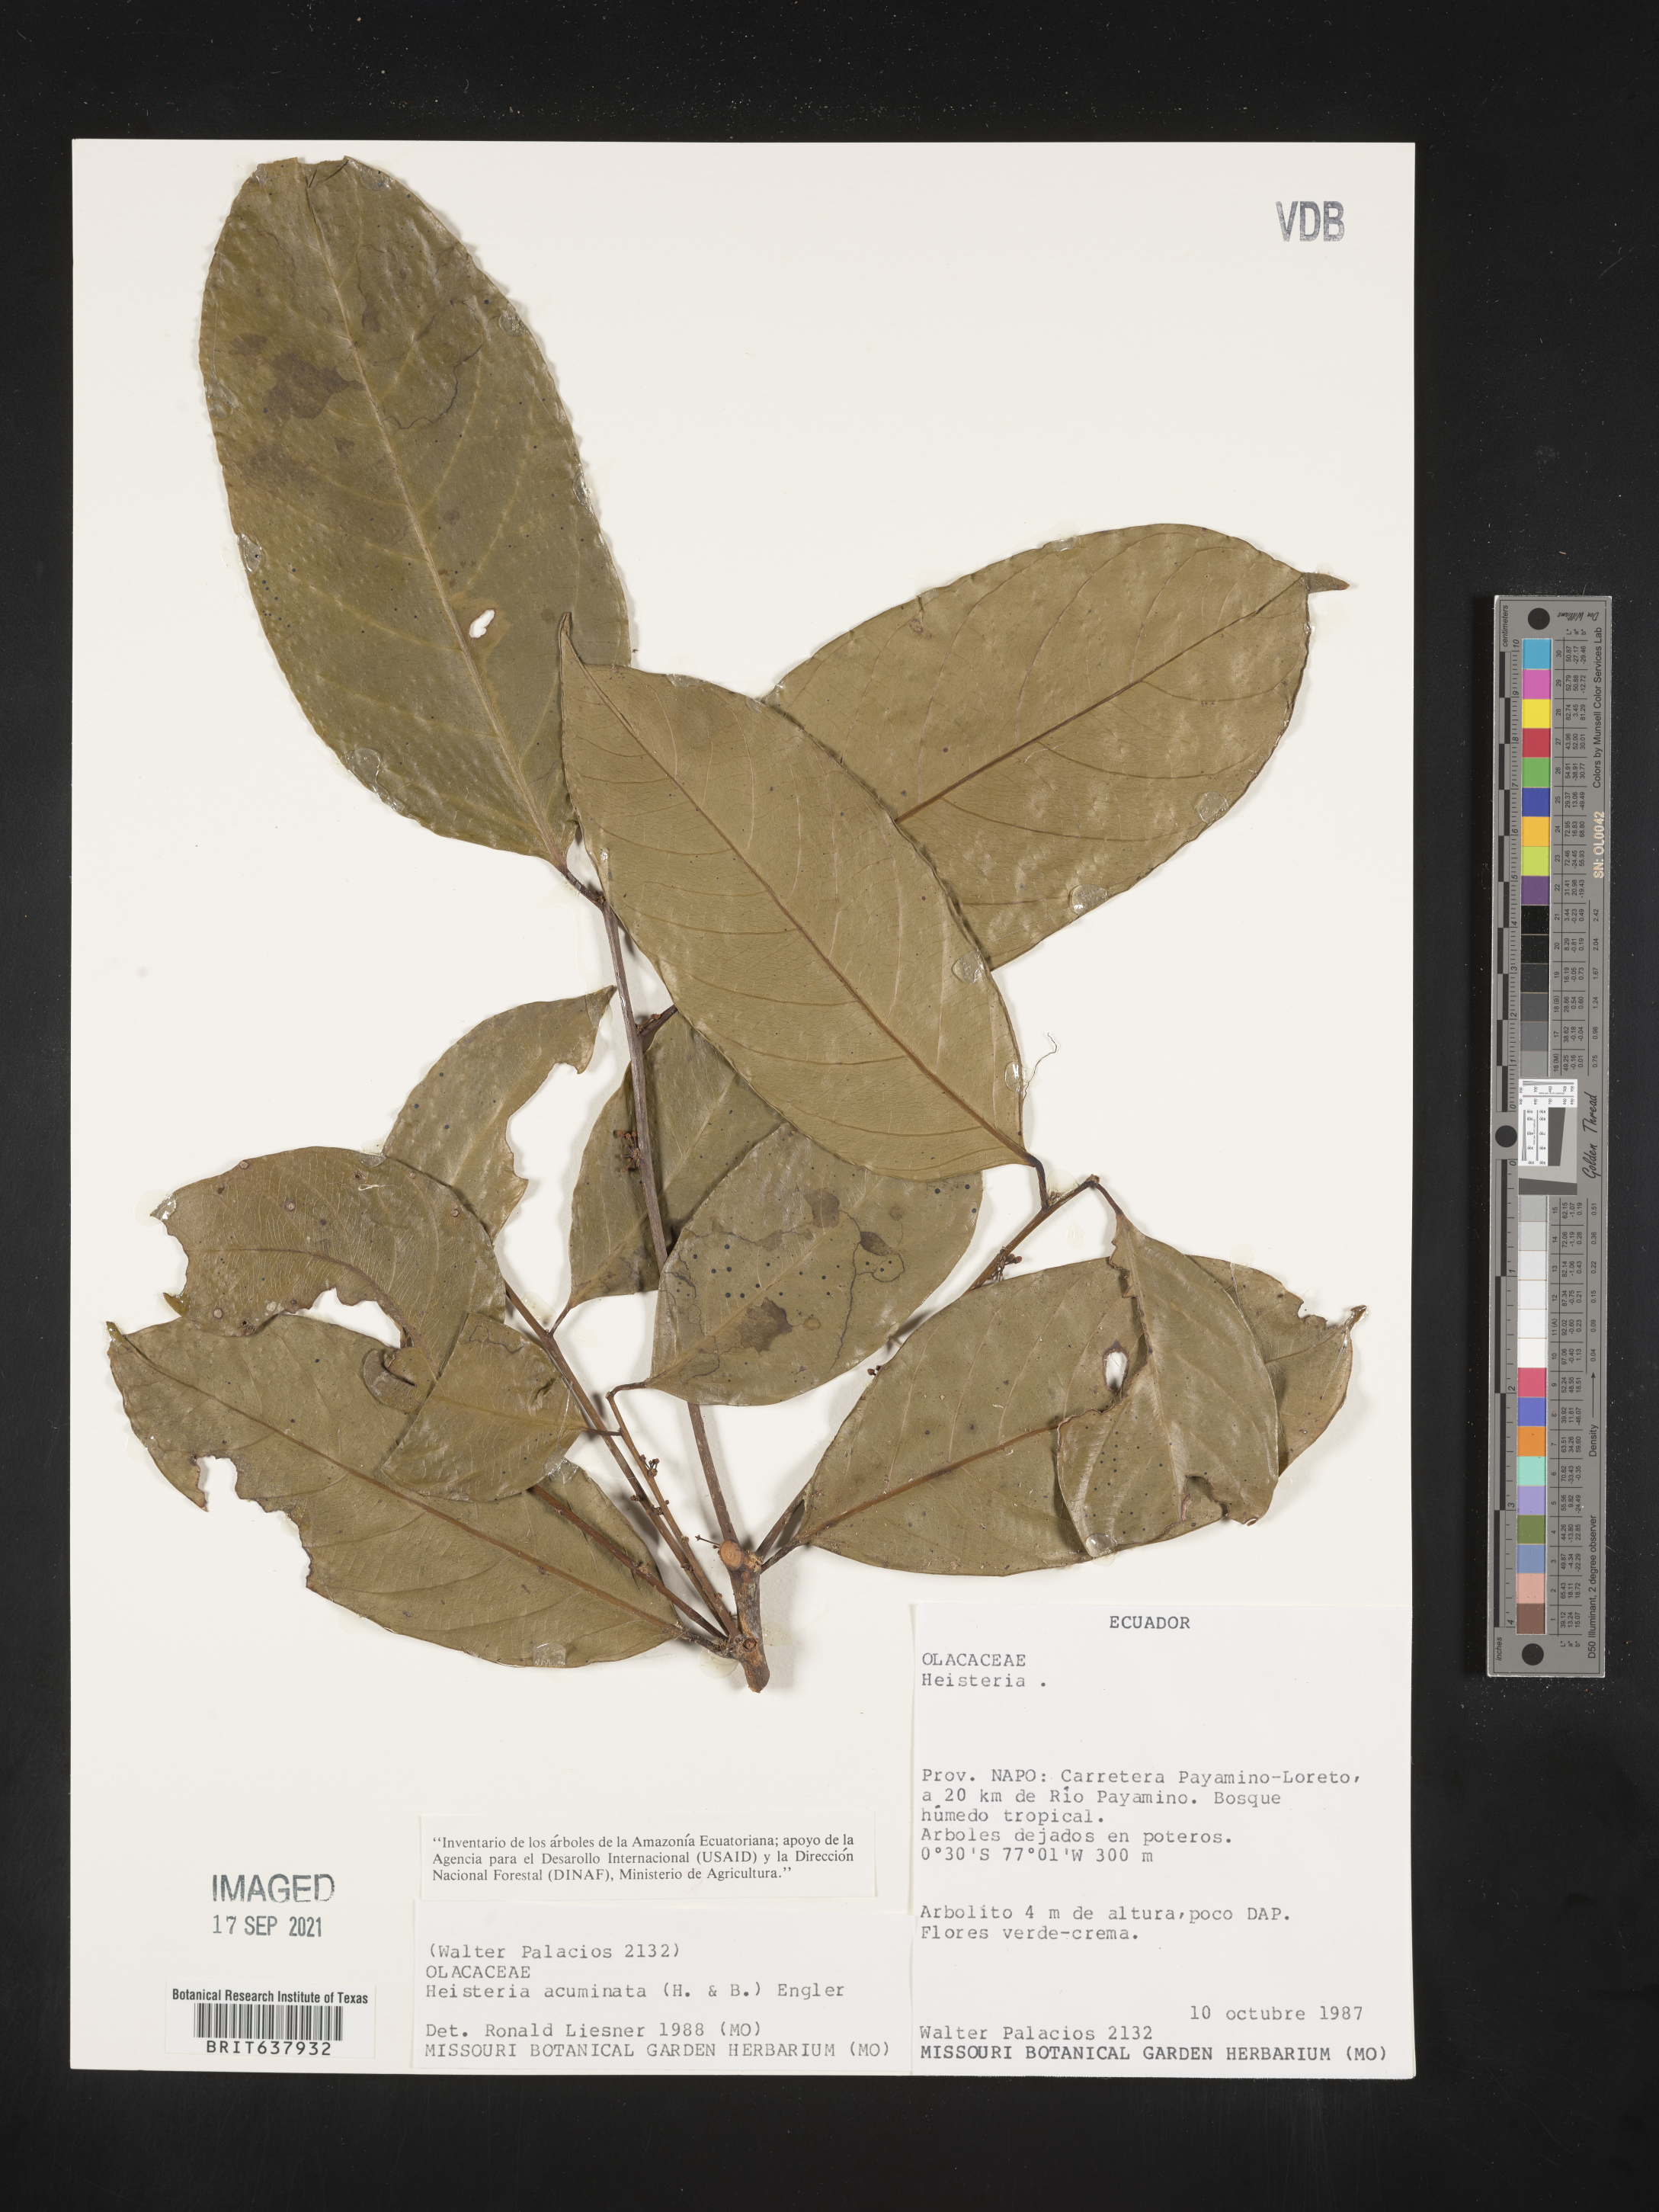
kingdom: Plantae
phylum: Tracheophyta
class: Magnoliopsida
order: Santalales
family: Erythropalaceae
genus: Heisteria
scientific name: Heisteria
